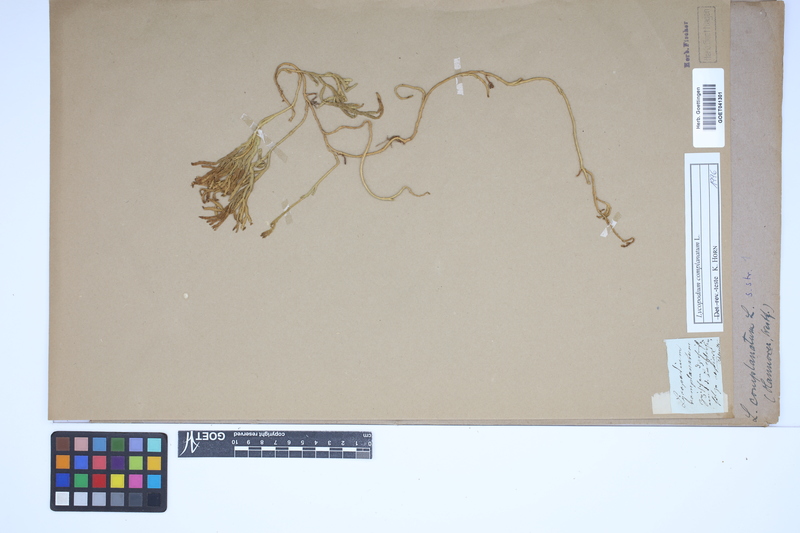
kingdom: Plantae
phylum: Tracheophyta
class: Lycopodiopsida
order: Lycopodiales
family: Lycopodiaceae
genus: Diphasiastrum
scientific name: Diphasiastrum complanatum
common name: Northern running-pine
